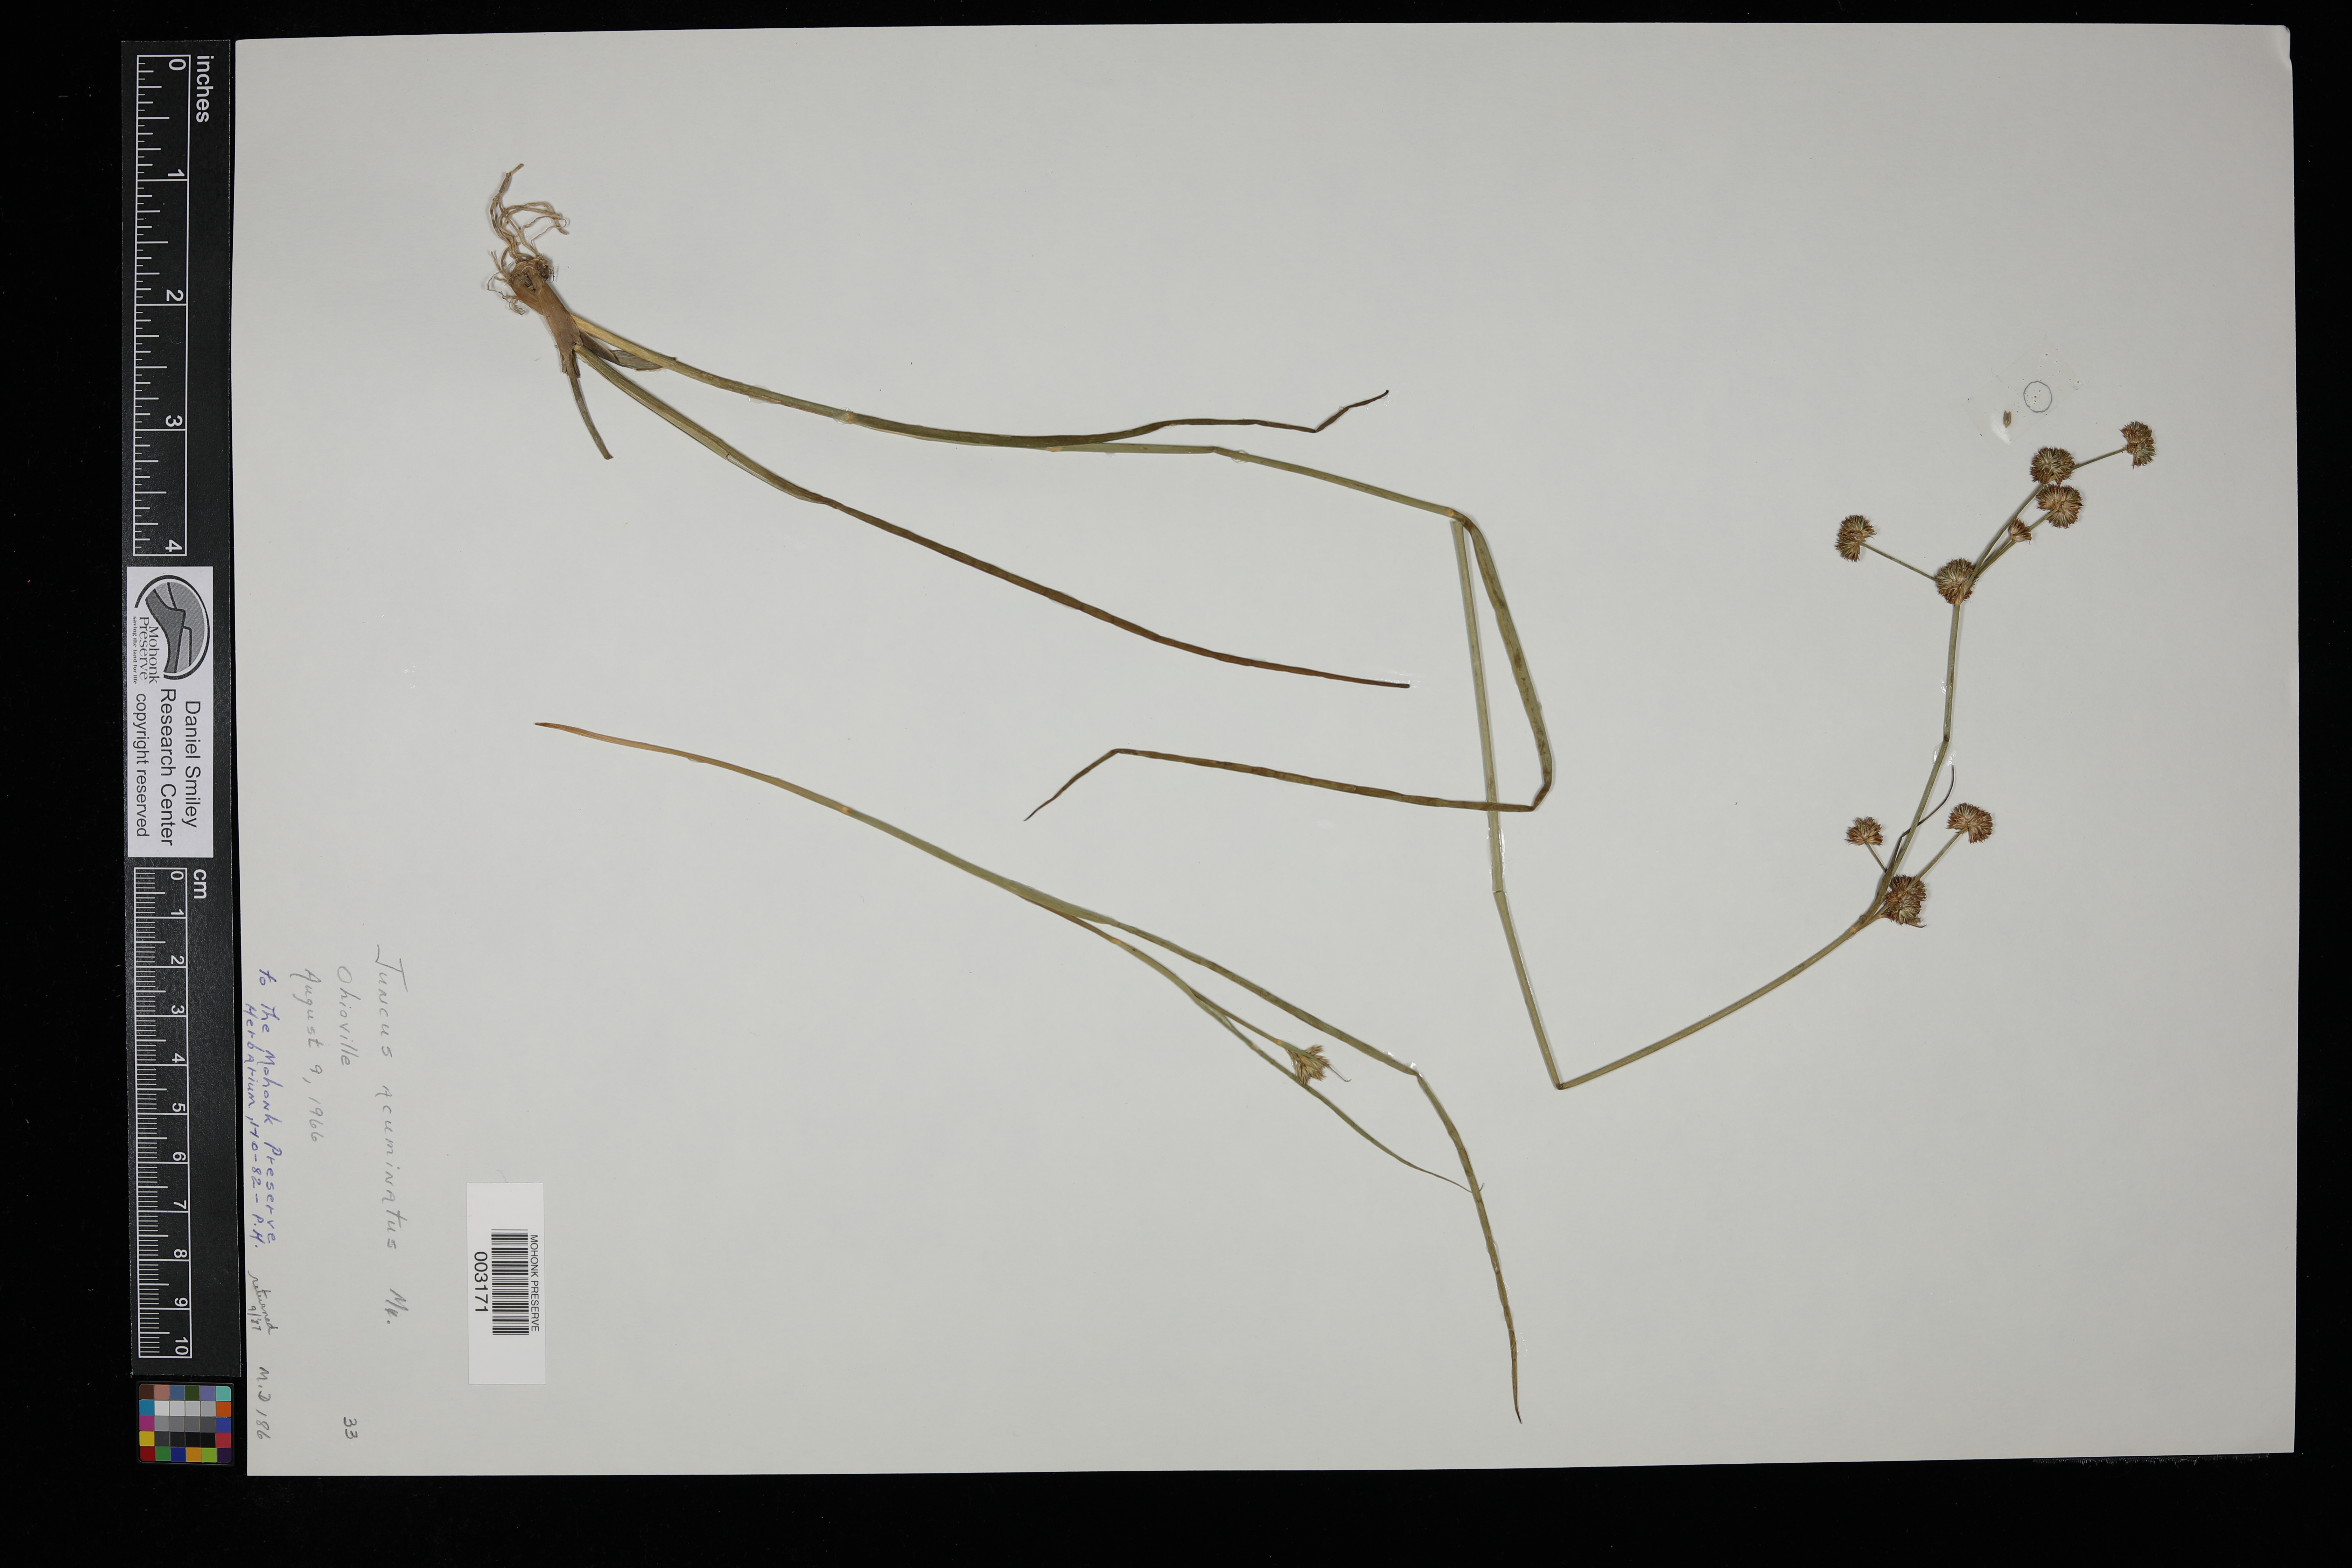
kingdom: Plantae
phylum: Tracheophyta
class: Liliopsida
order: Poales
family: Juncaceae
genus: Juncus
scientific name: Juncus acuminatus
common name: Knotty-leaved rush
